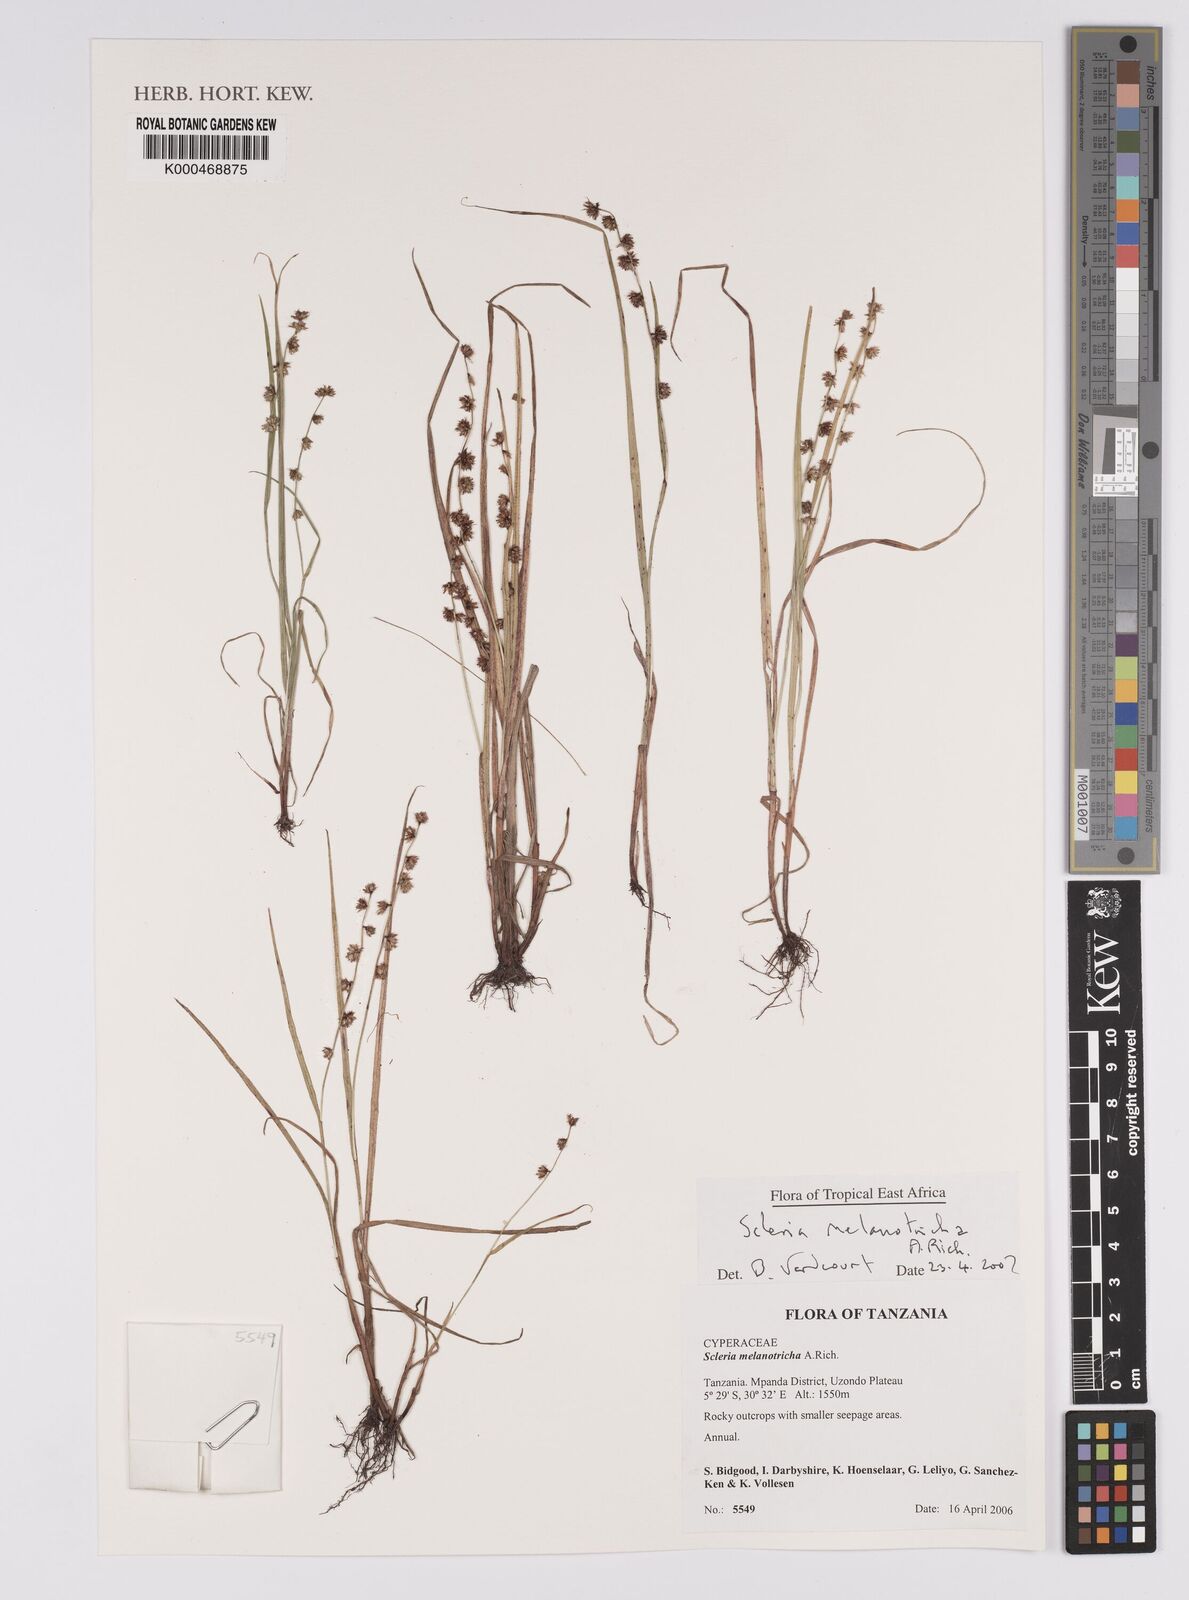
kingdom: Plantae
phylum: Tracheophyta
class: Liliopsida
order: Poales
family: Cyperaceae
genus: Scleria
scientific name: Scleria melanotricha
